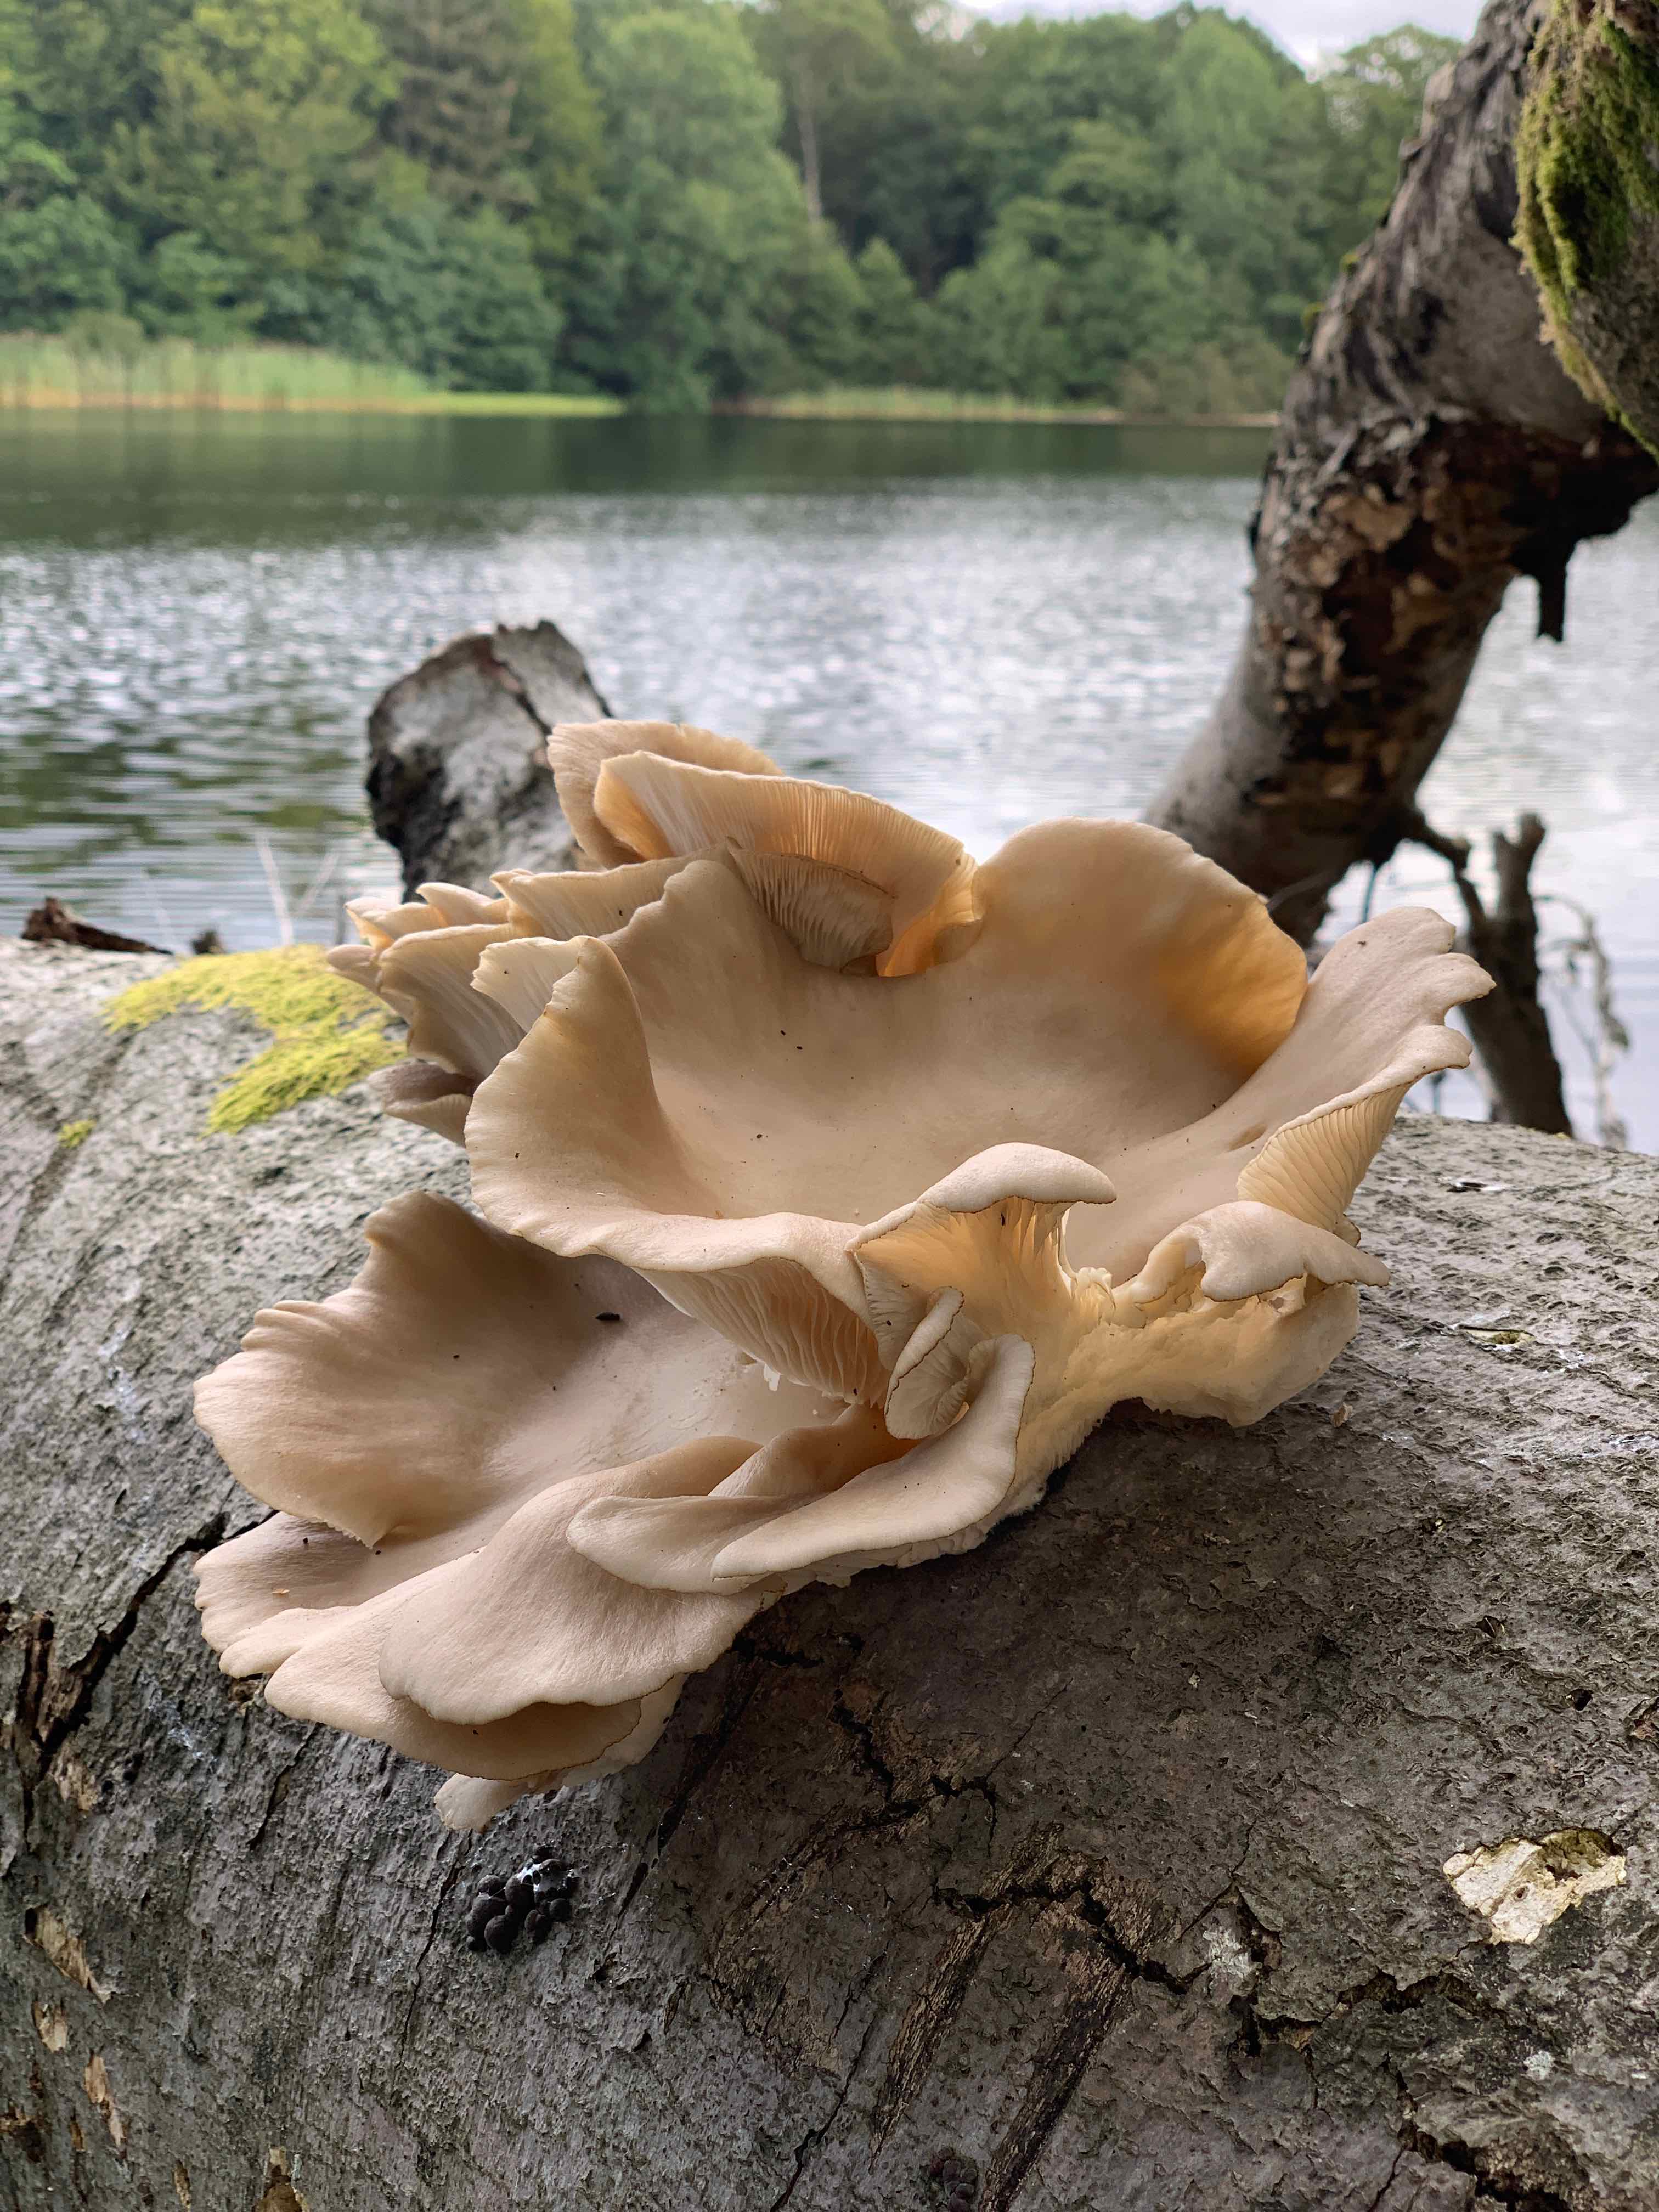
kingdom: Fungi
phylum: Basidiomycota
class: Agaricomycetes
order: Agaricales
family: Pleurotaceae
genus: Pleurotus
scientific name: Pleurotus pulmonarius
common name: sommer-østershat
